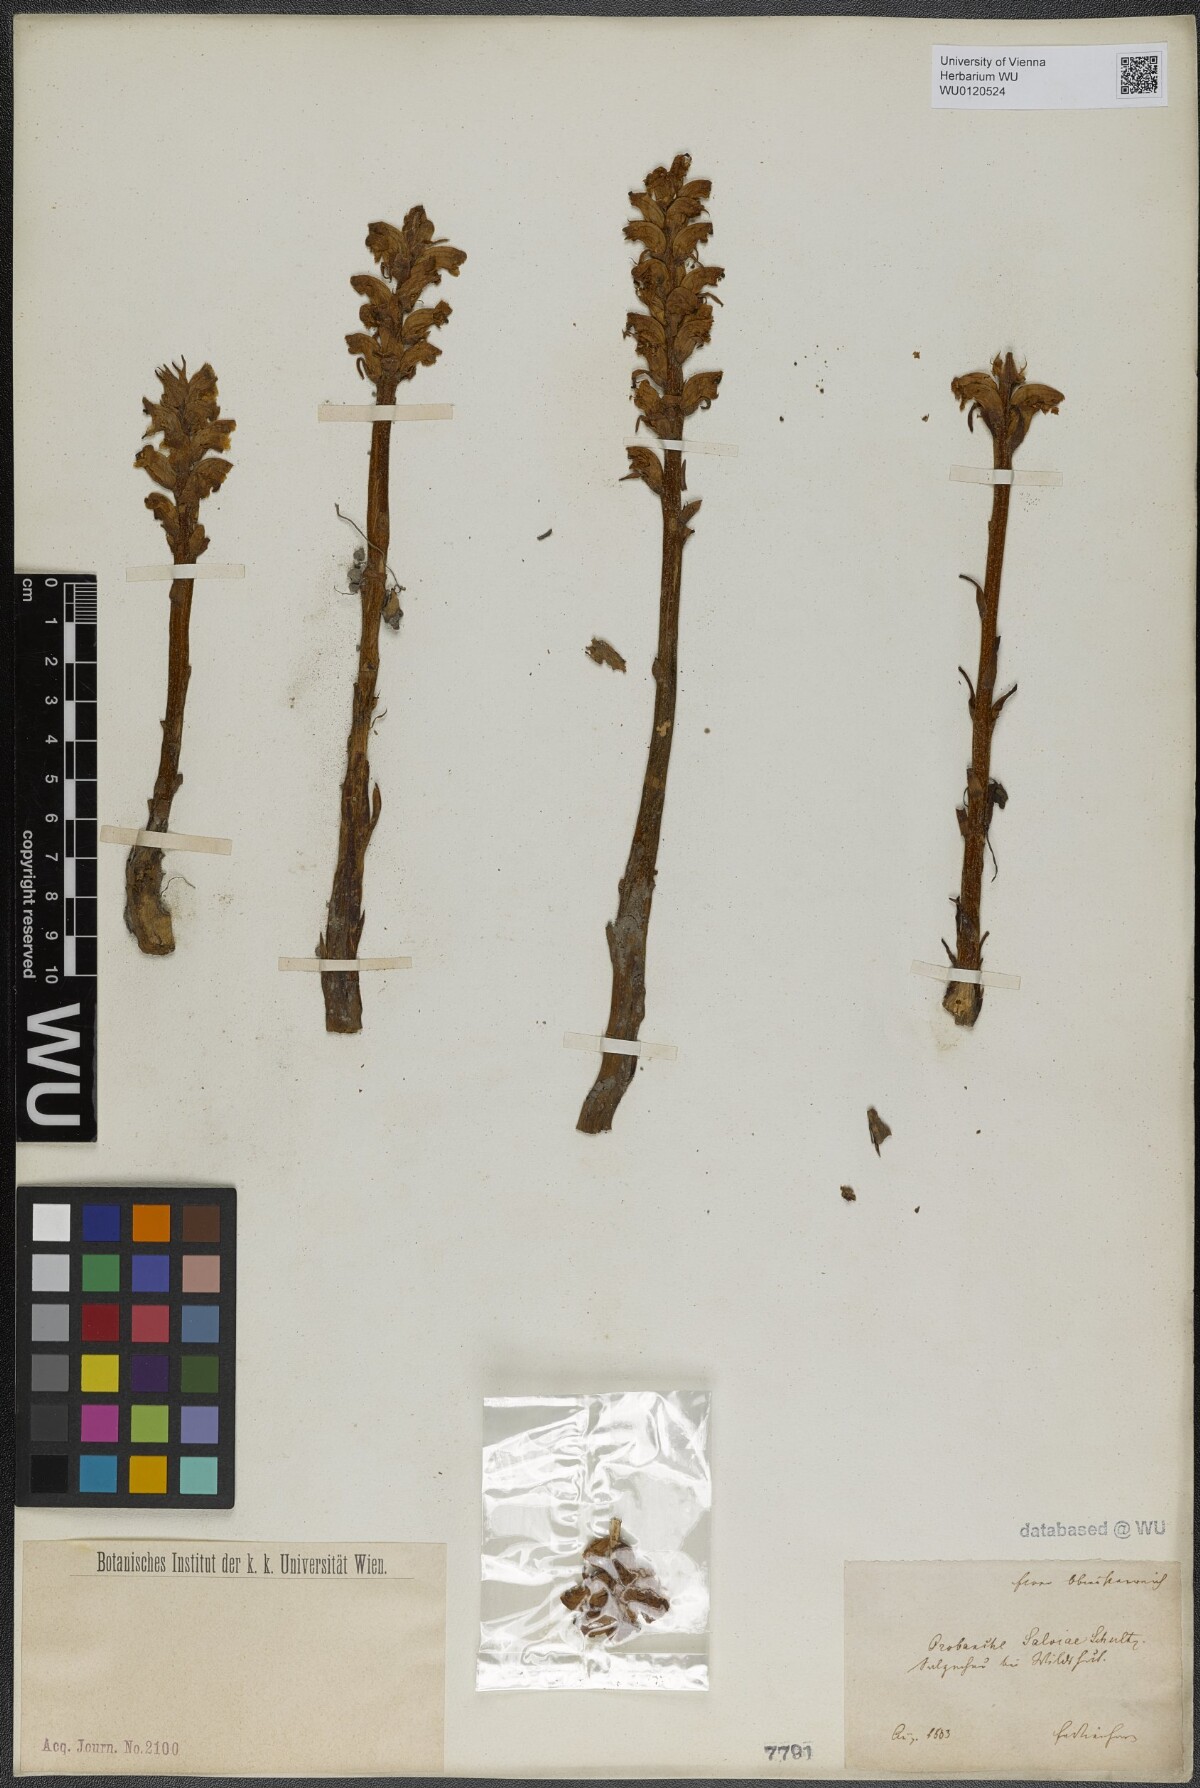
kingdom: Plantae
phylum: Tracheophyta
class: Magnoliopsida
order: Lamiales
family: Orobanchaceae
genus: Orobanche
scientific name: Orobanche salviae
